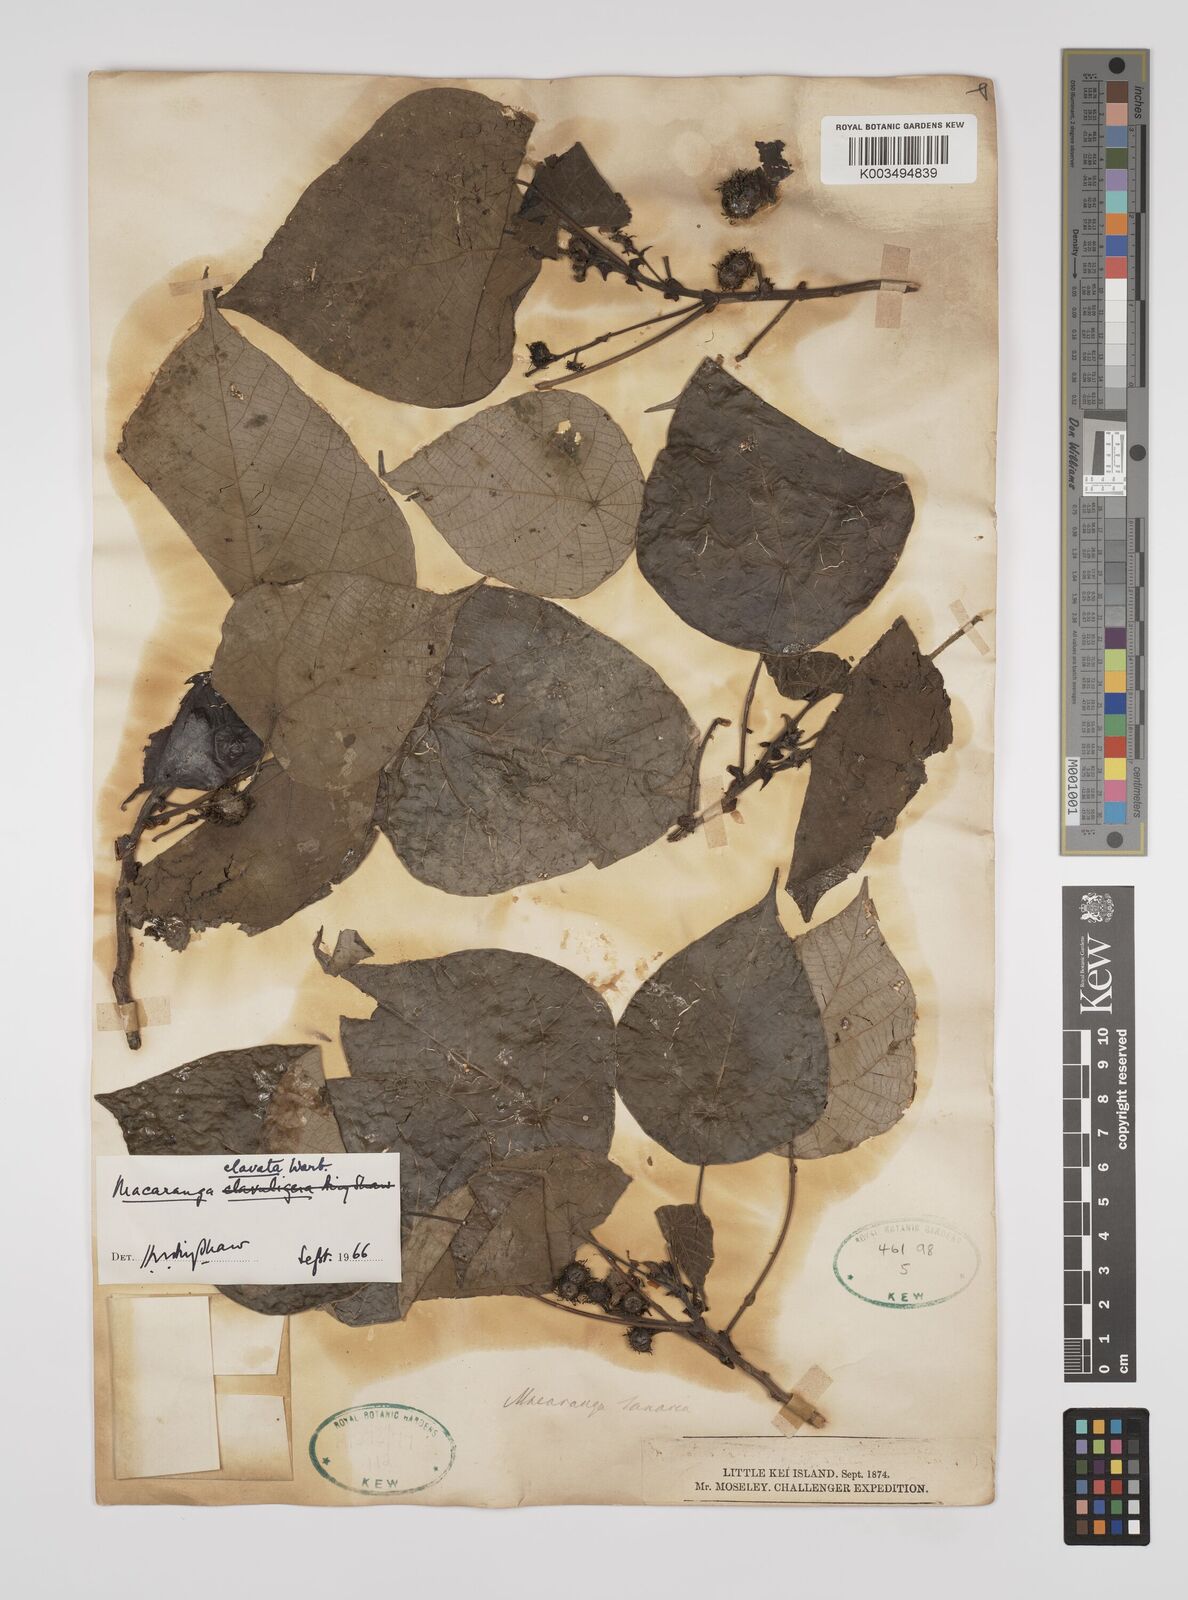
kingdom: Plantae
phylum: Tracheophyta
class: Magnoliopsida
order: Malpighiales
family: Euphorbiaceae
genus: Macaranga
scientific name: Macaranga clavata
